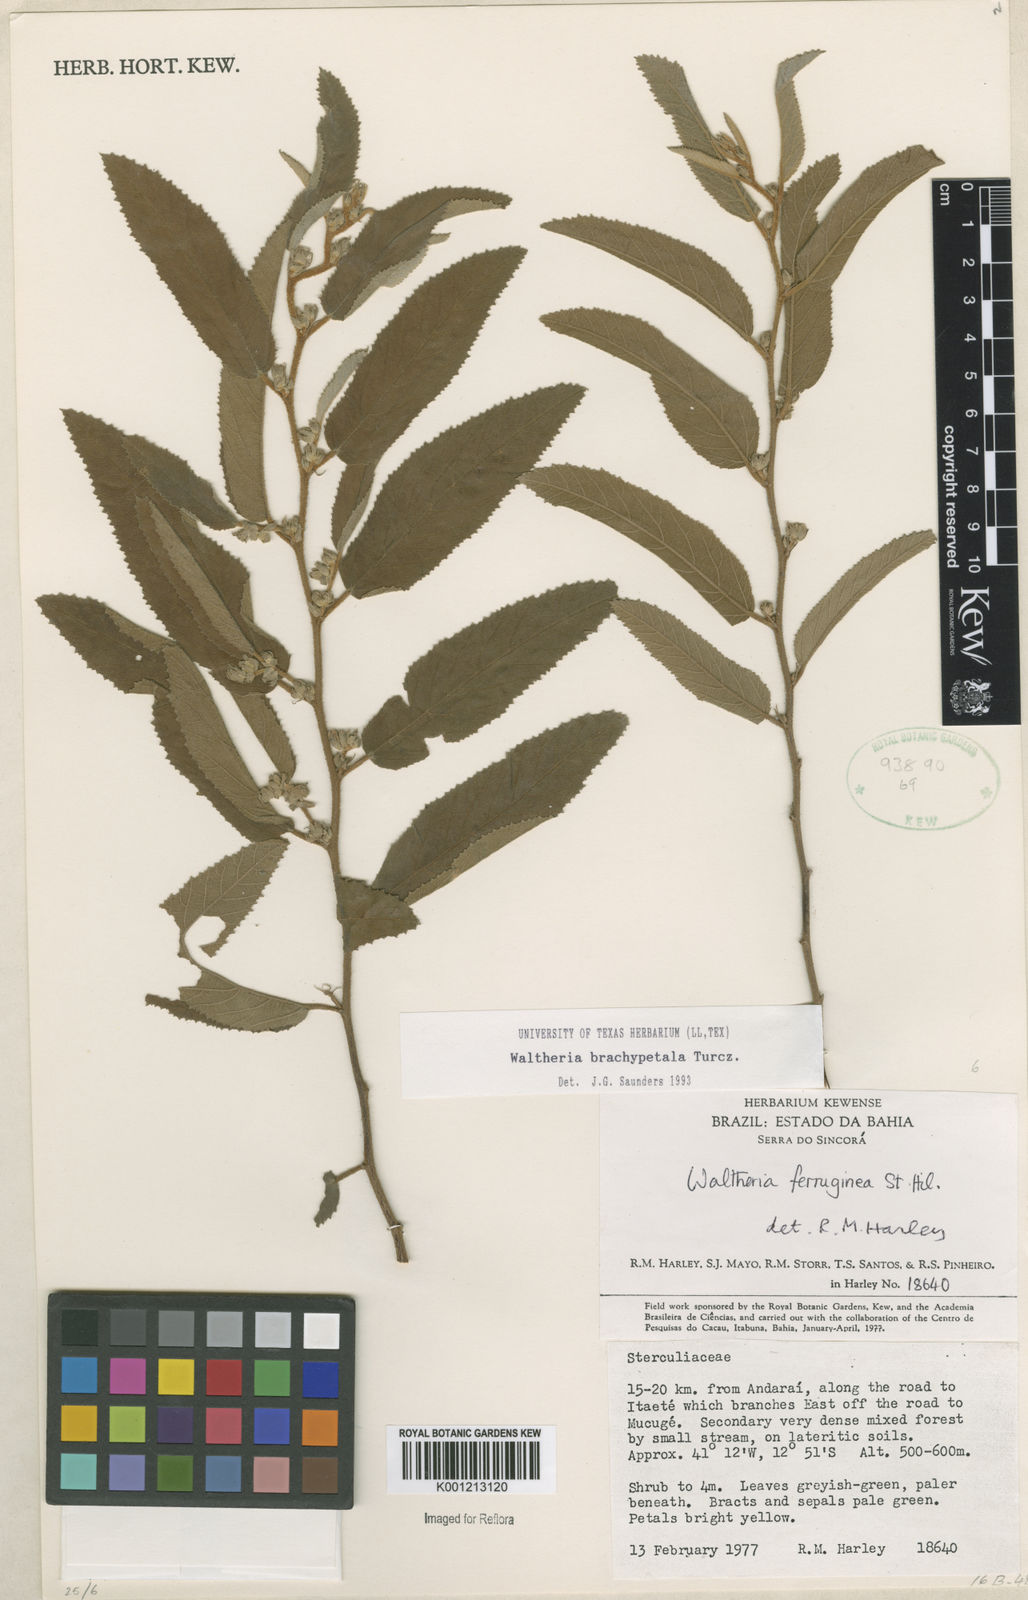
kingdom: Plantae
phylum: Tracheophyta
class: Magnoliopsida
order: Malvales
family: Malvaceae
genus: Waltheria
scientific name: Waltheria ferruginea
